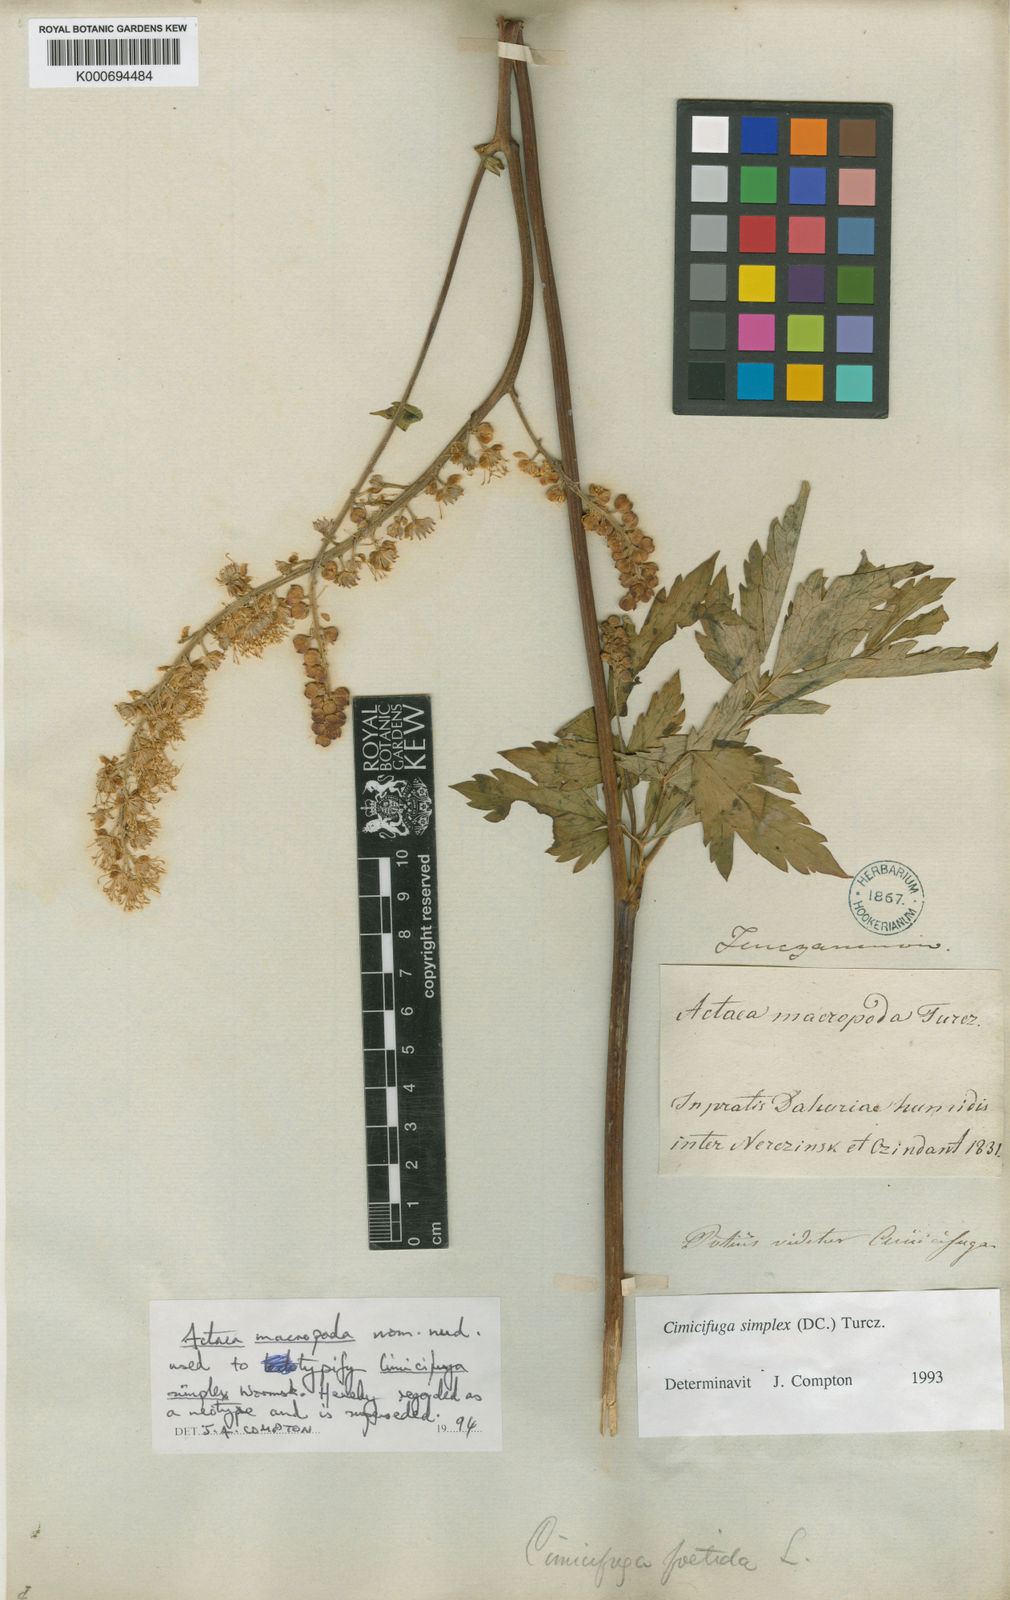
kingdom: Plantae
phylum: Tracheophyta
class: Magnoliopsida
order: Ranunculales
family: Ranunculaceae
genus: Actaea
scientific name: Actaea simplex
